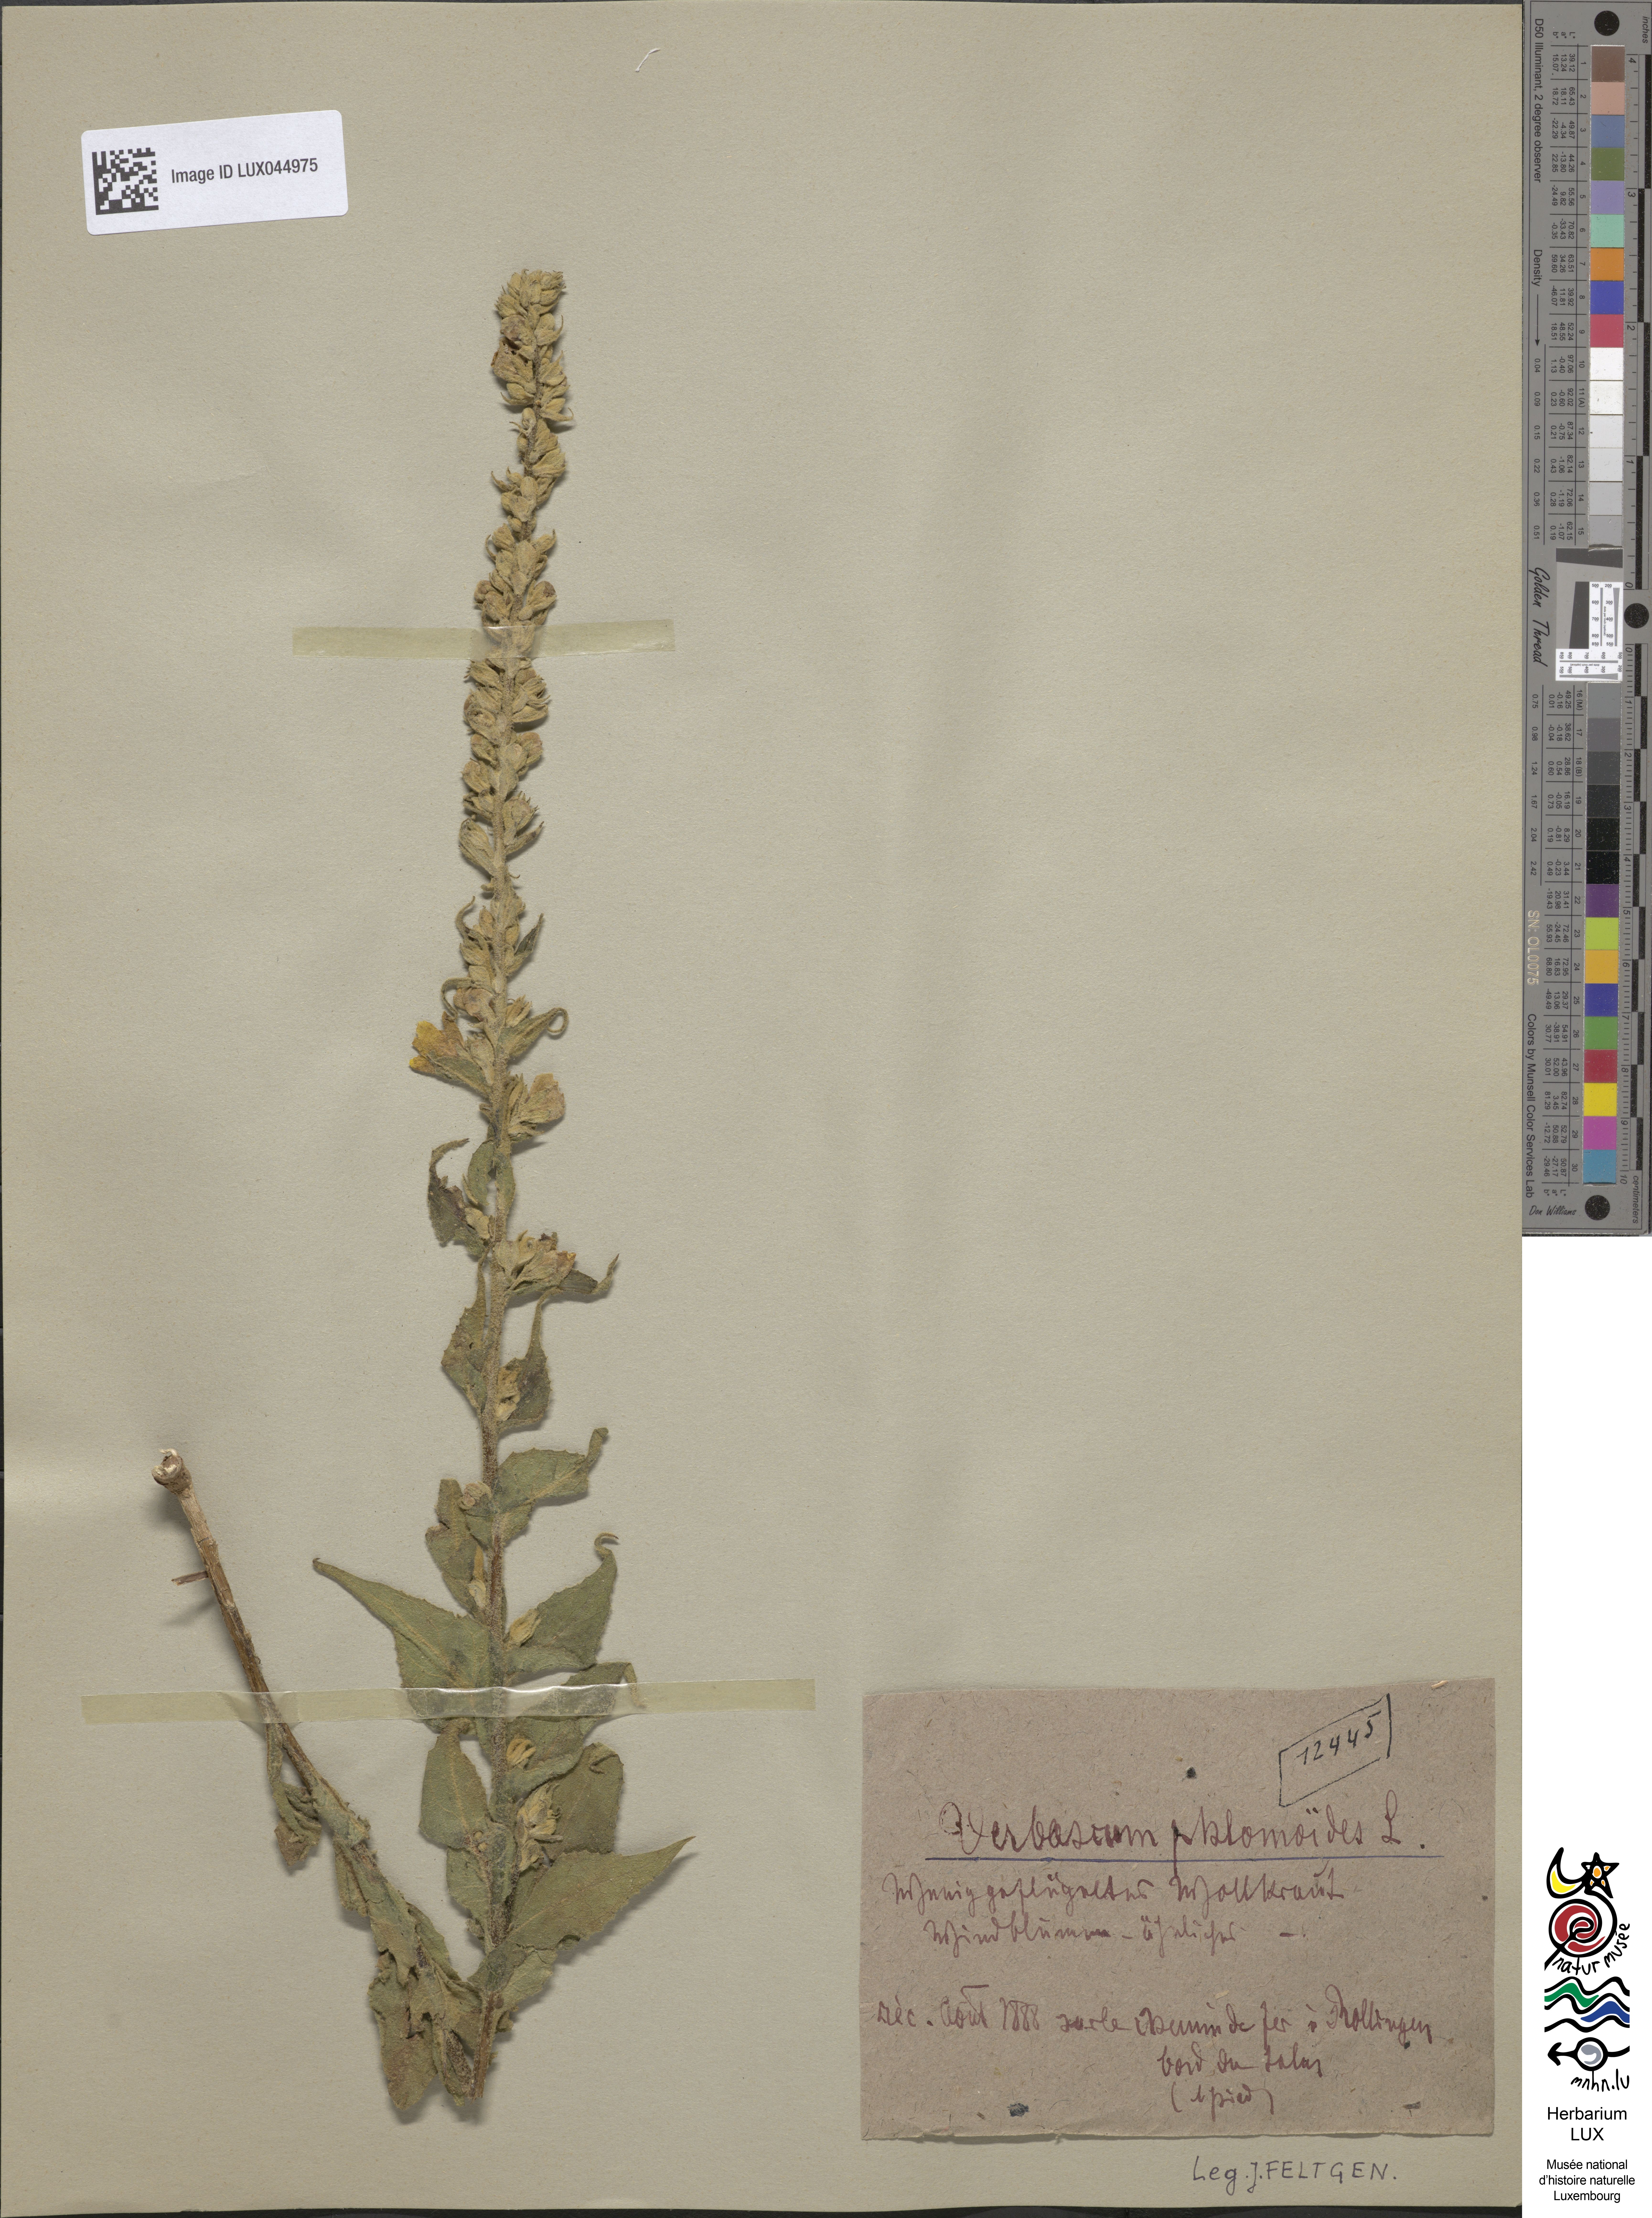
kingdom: Plantae
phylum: Tracheophyta
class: Magnoliopsida
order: Lamiales
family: Scrophulariaceae
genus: Verbascum
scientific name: Verbascum phlomoides
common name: Orange mullein
